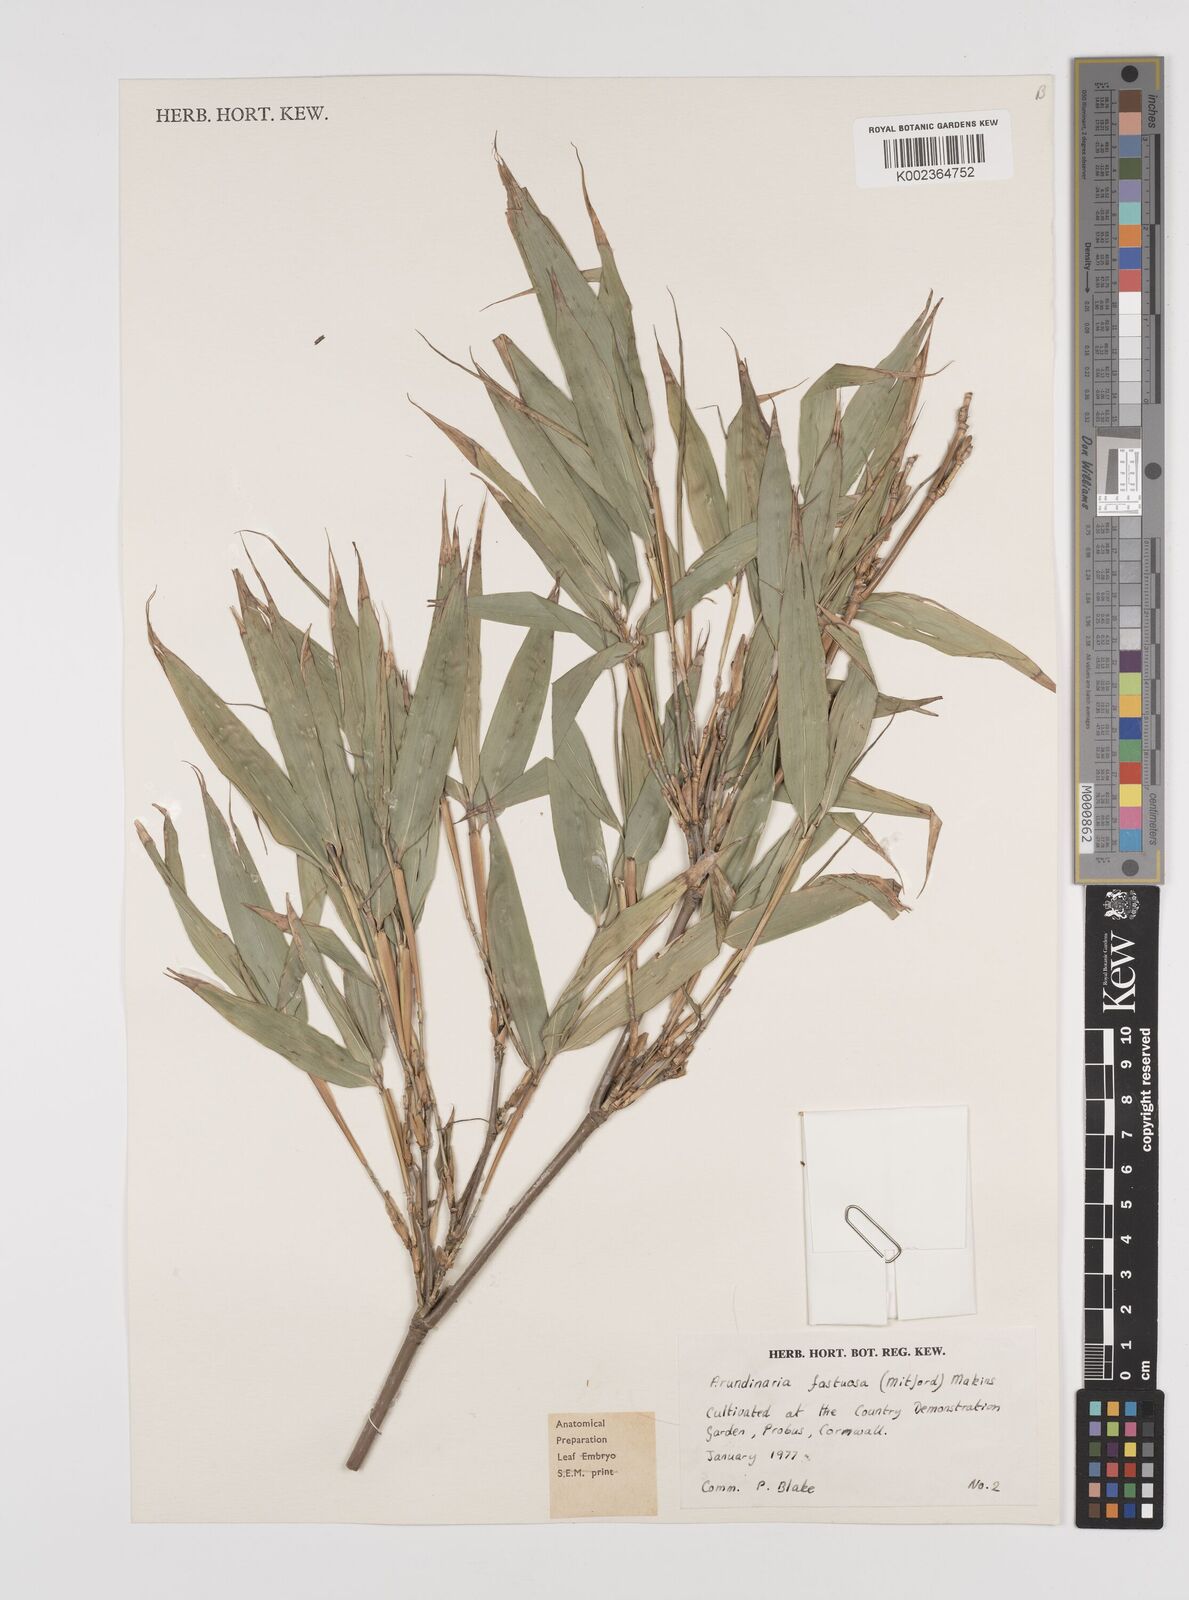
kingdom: Plantae
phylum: Tracheophyta
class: Liliopsida
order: Poales
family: Poaceae
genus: Semiarundinaria
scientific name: Semiarundinaria fastuosa
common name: Narihira bamboo
